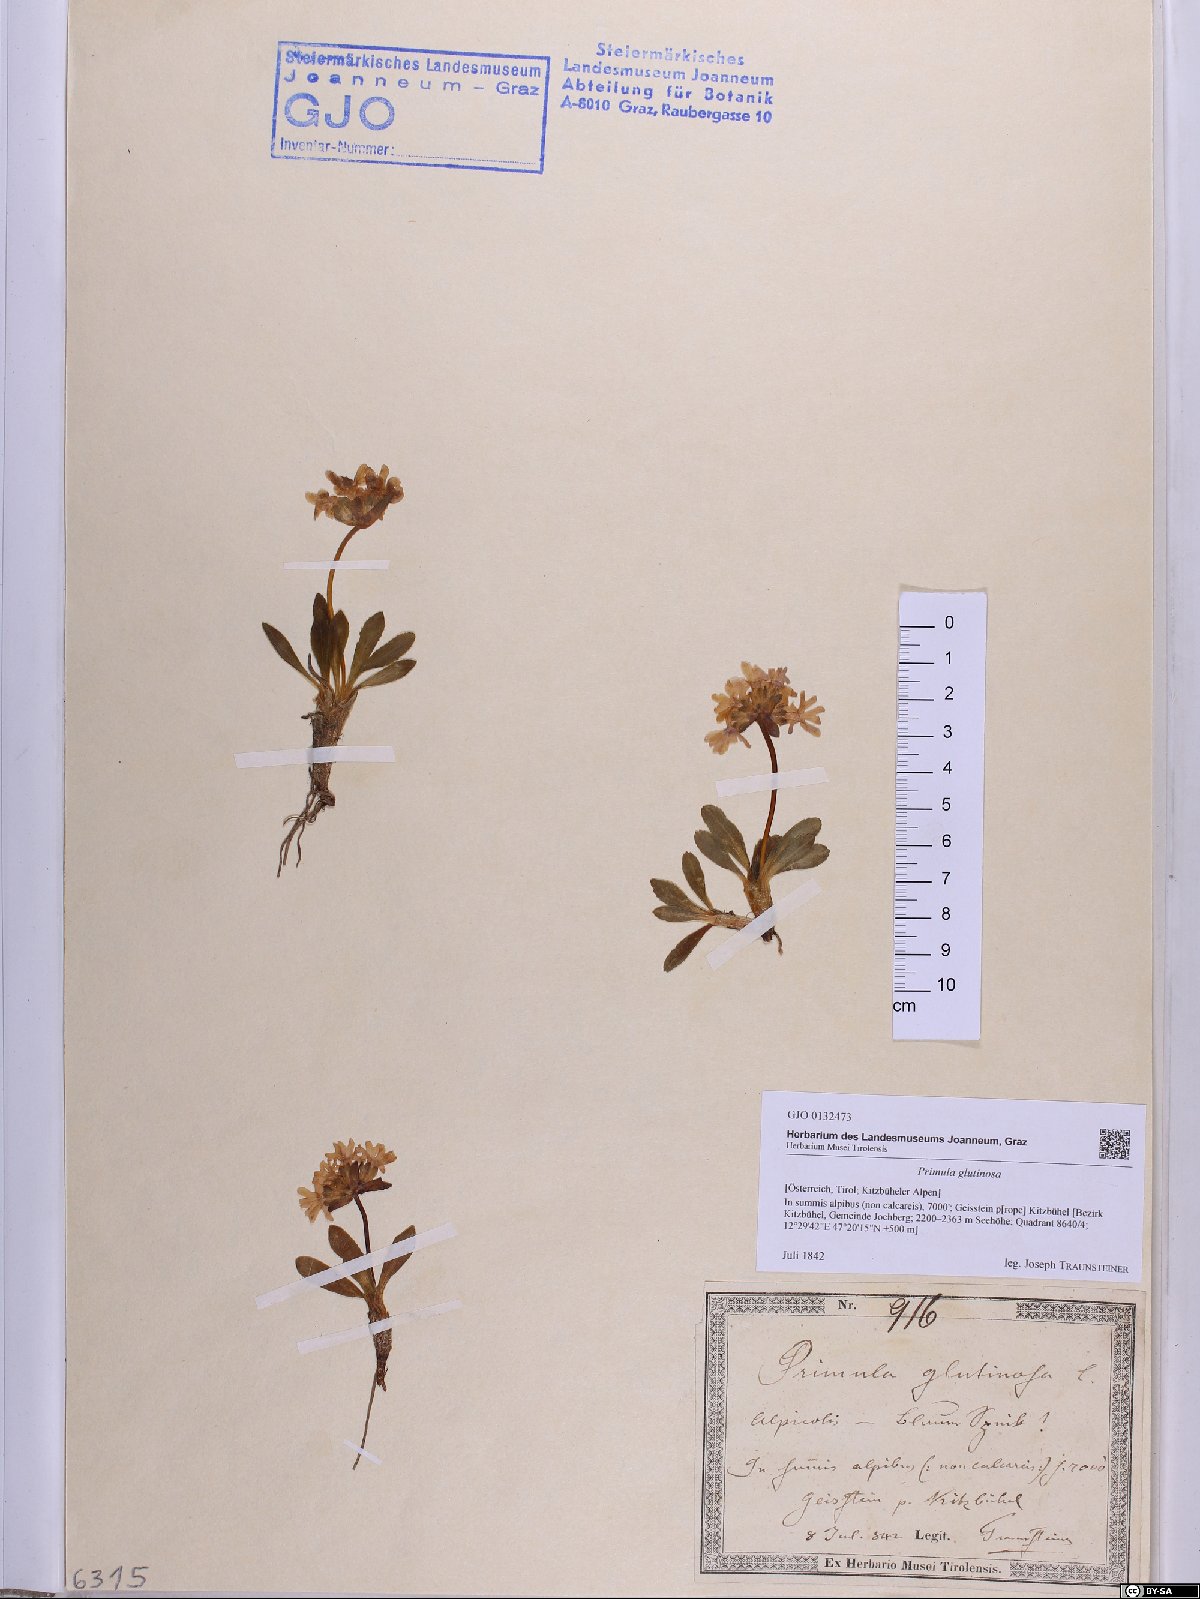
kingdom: Plantae
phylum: Tracheophyta
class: Magnoliopsida
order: Ericales
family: Primulaceae
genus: Primula
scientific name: Primula glutinosa
